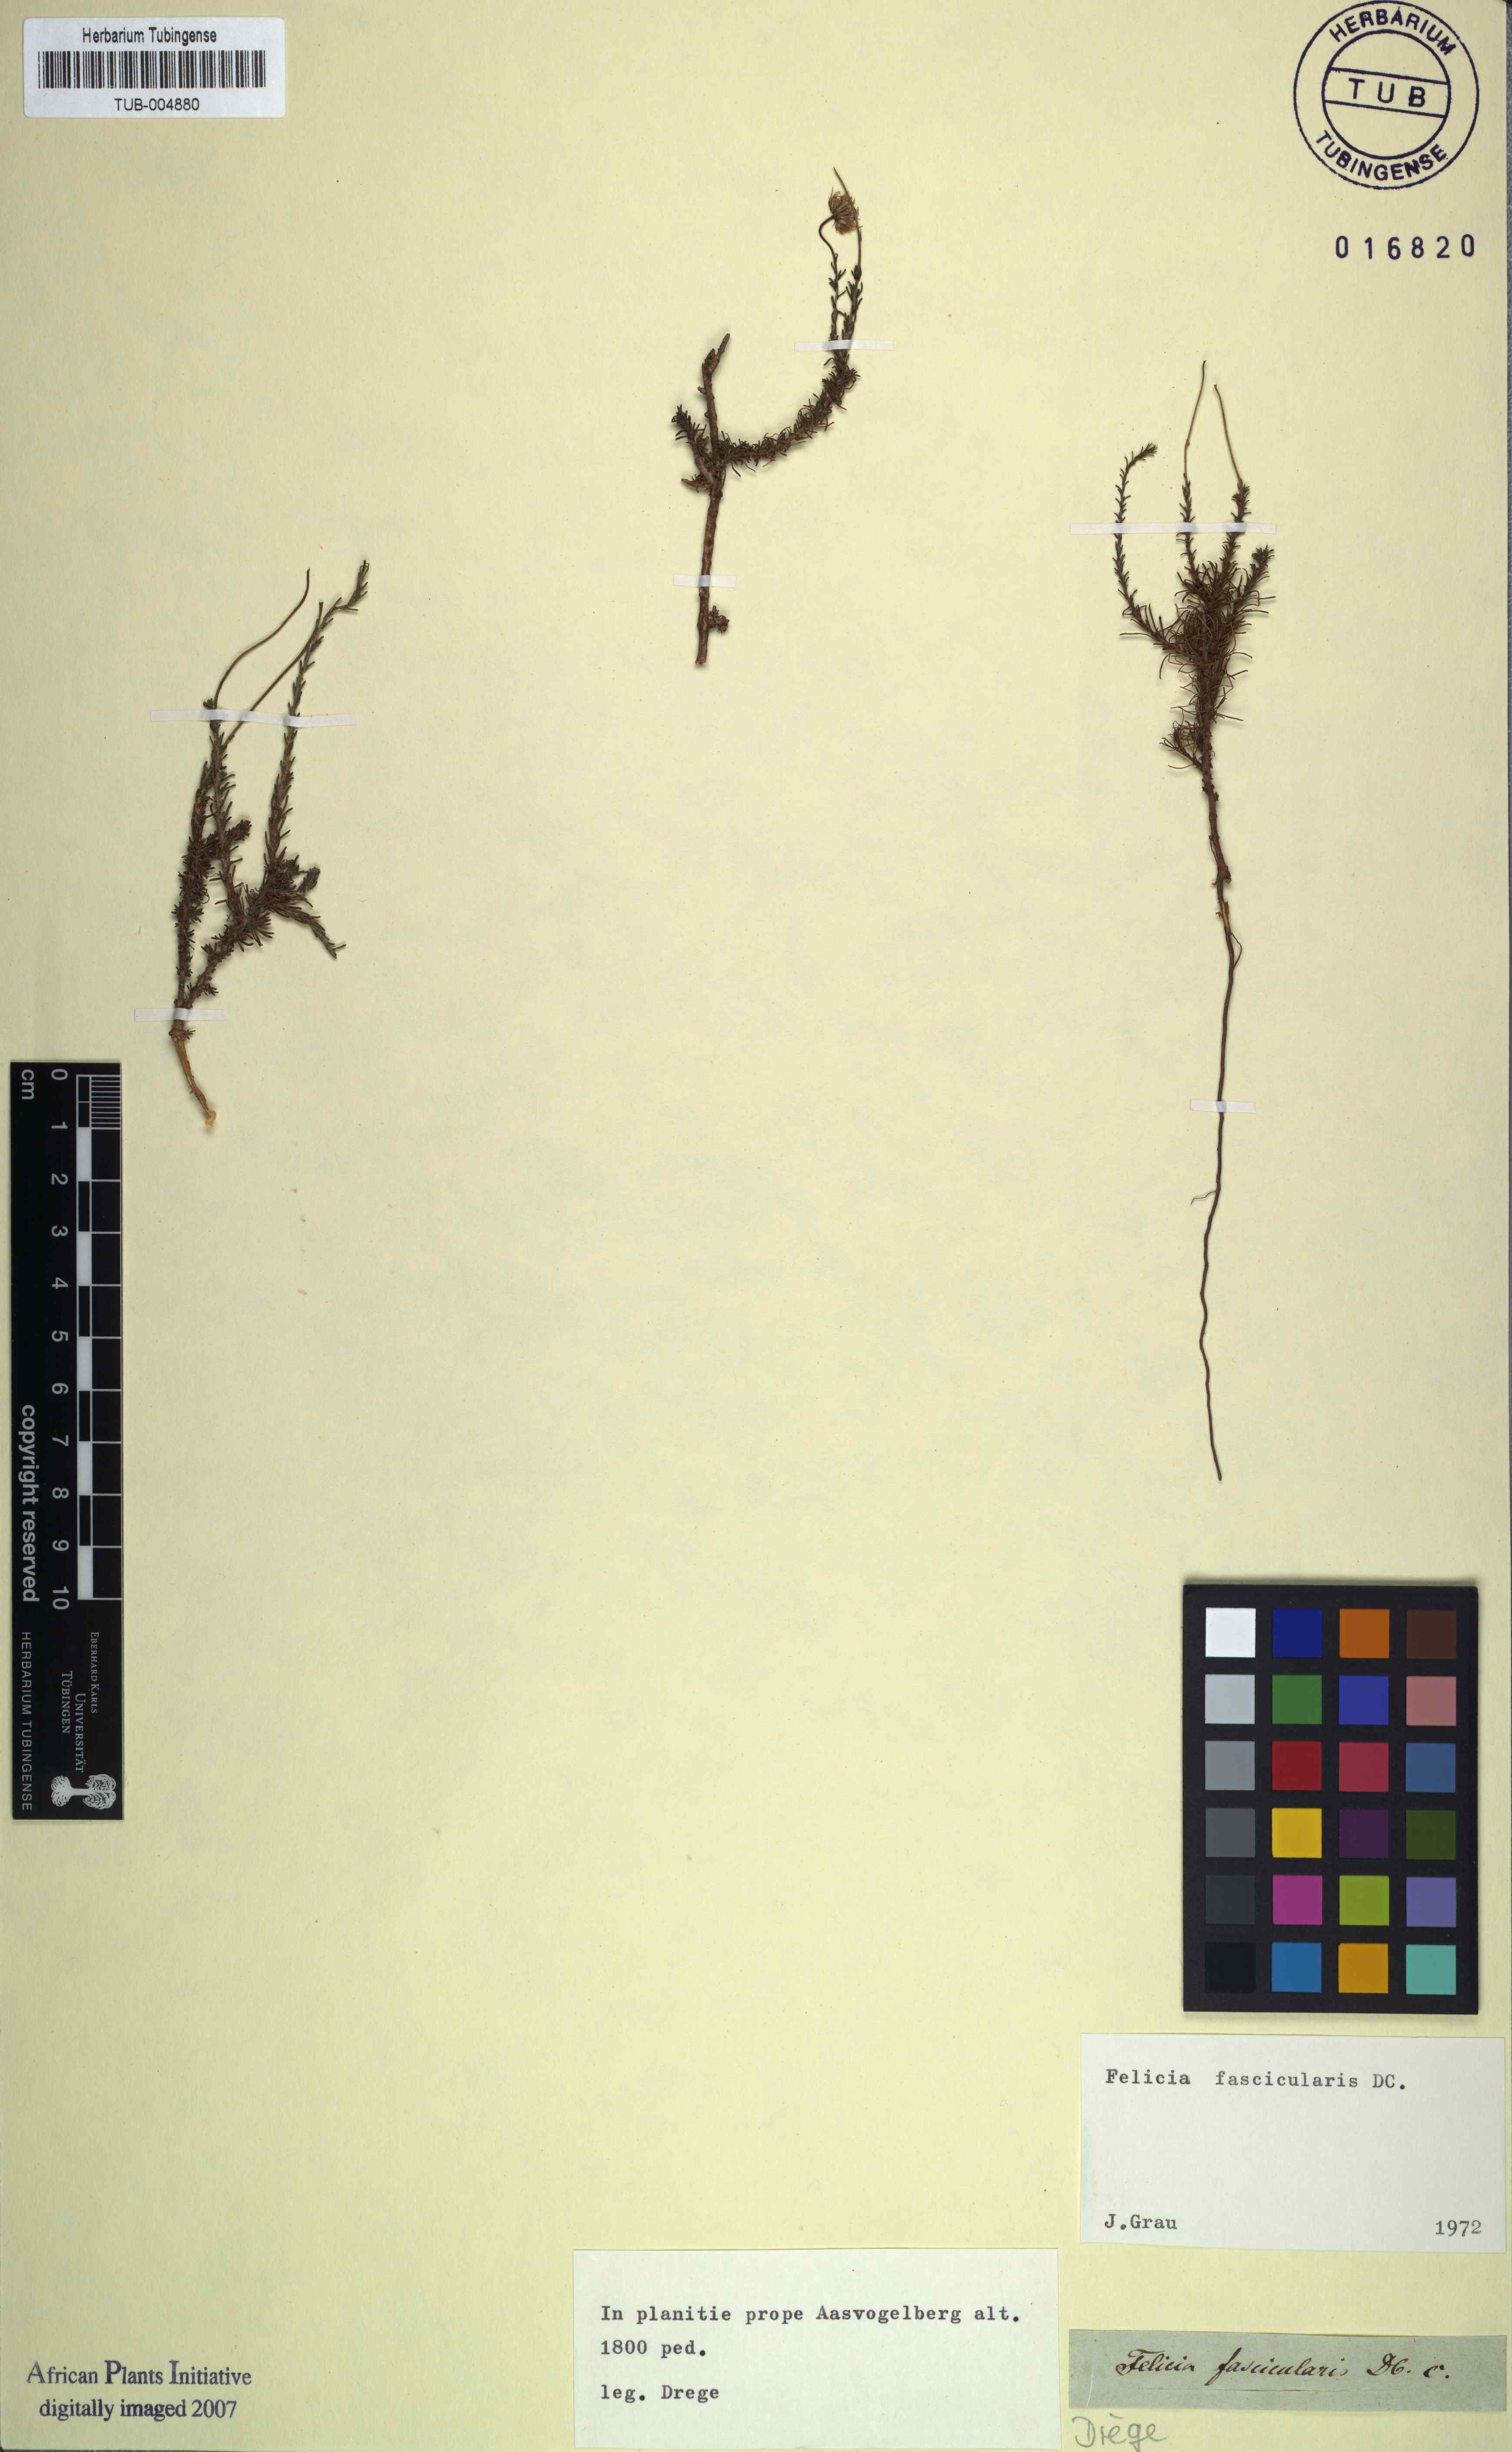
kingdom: Plantae
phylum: Tracheophyta
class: Magnoliopsida
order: Asterales
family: Asteraceae
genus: Felicia
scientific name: Felicia fascicularis
